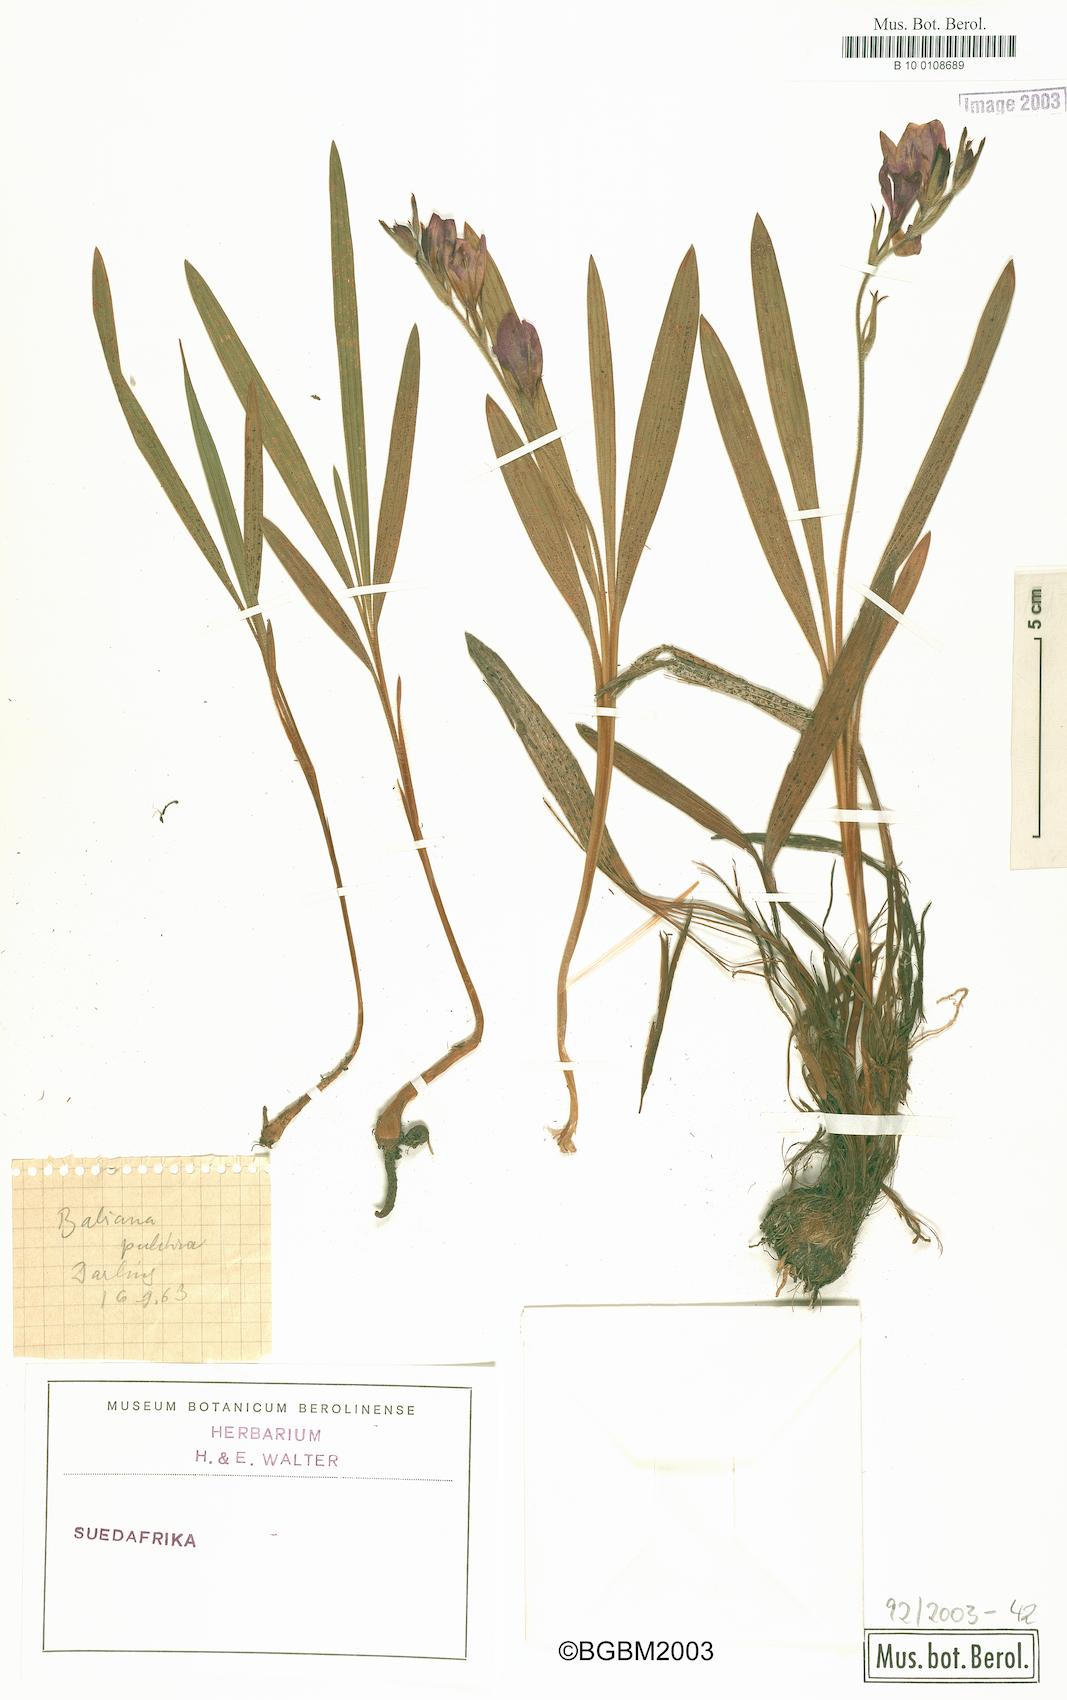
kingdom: Plantae
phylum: Tracheophyta
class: Liliopsida
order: Asparagales
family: Iridaceae
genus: Babiana
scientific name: Babiana angustifolia
